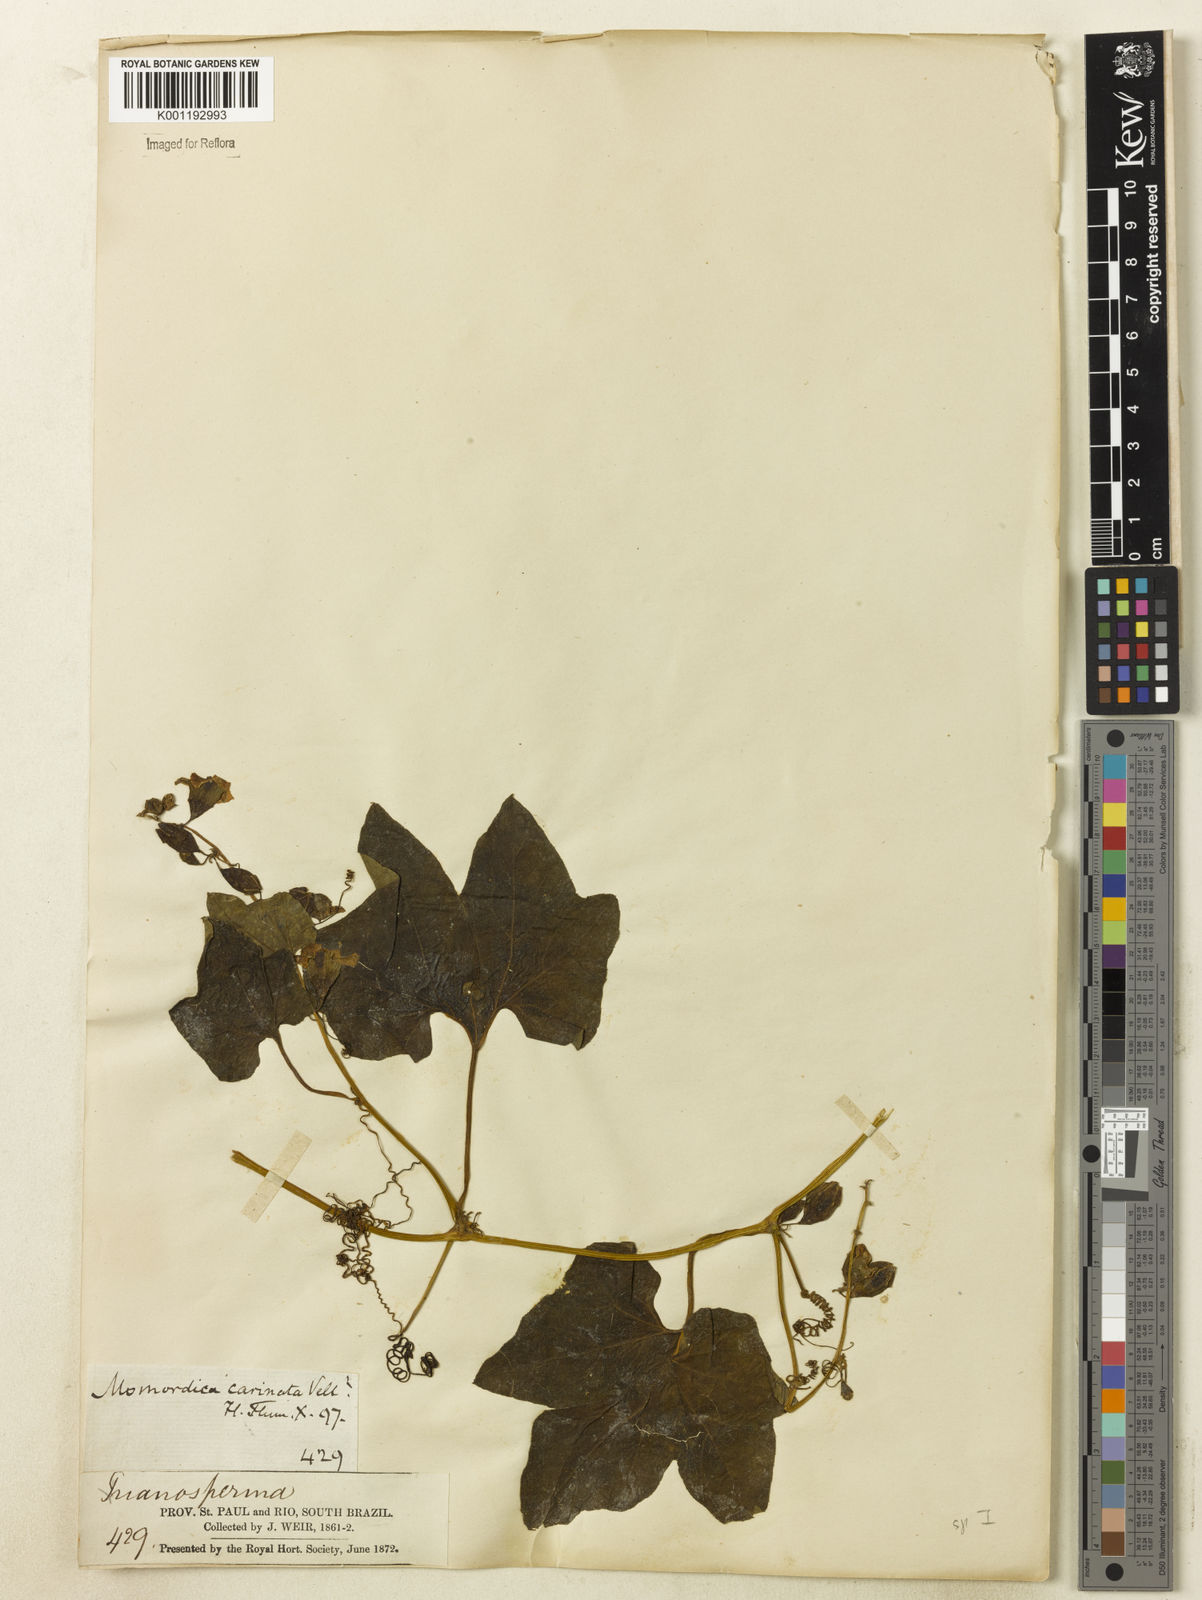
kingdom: Plantae
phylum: Tracheophyta
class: Magnoliopsida
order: Cucurbitales
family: Cucurbitaceae
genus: Cayaponia
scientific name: Cayaponia bonariensis
